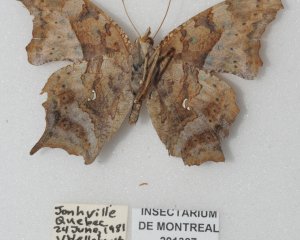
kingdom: Animalia
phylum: Arthropoda
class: Insecta
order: Lepidoptera
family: Nymphalidae
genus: Polygonia
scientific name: Polygonia interrogationis
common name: Question Mark
